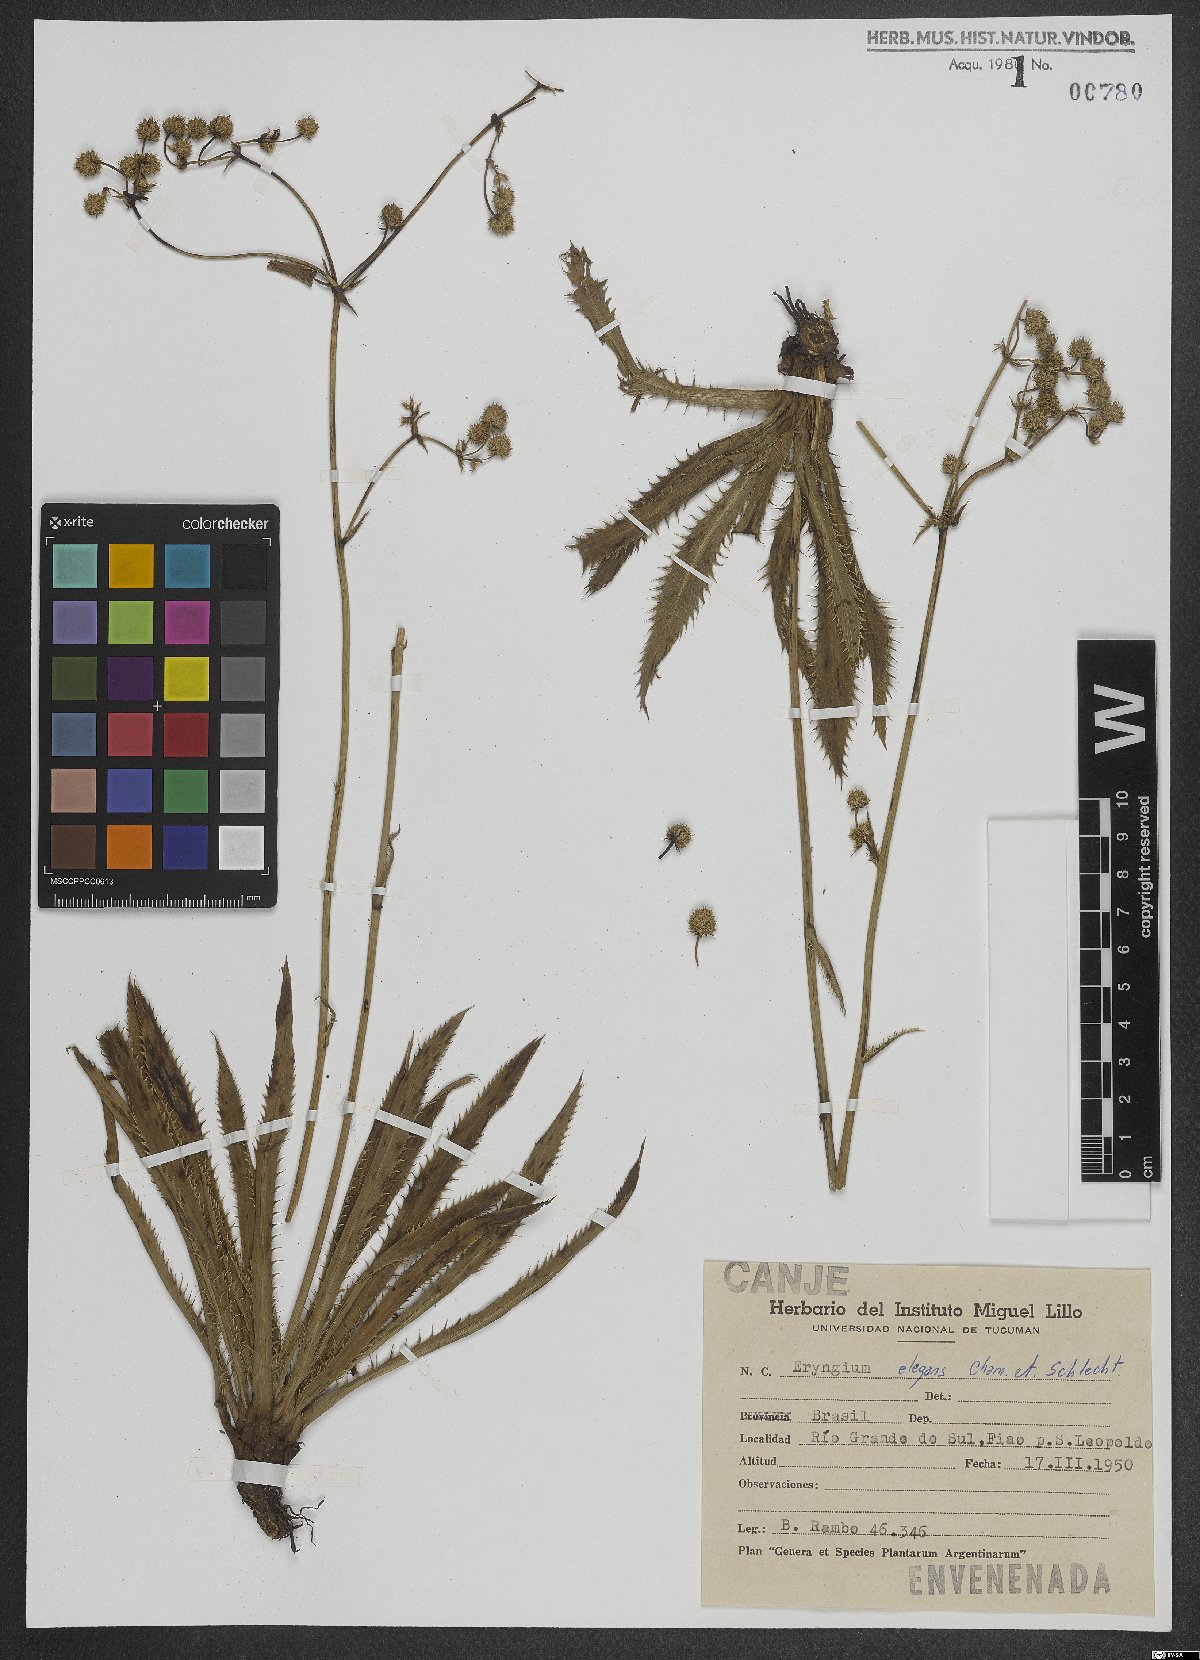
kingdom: Plantae
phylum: Tracheophyta
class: Magnoliopsida
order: Apiales
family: Apiaceae
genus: Eryngium
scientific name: Eryngium elegans
